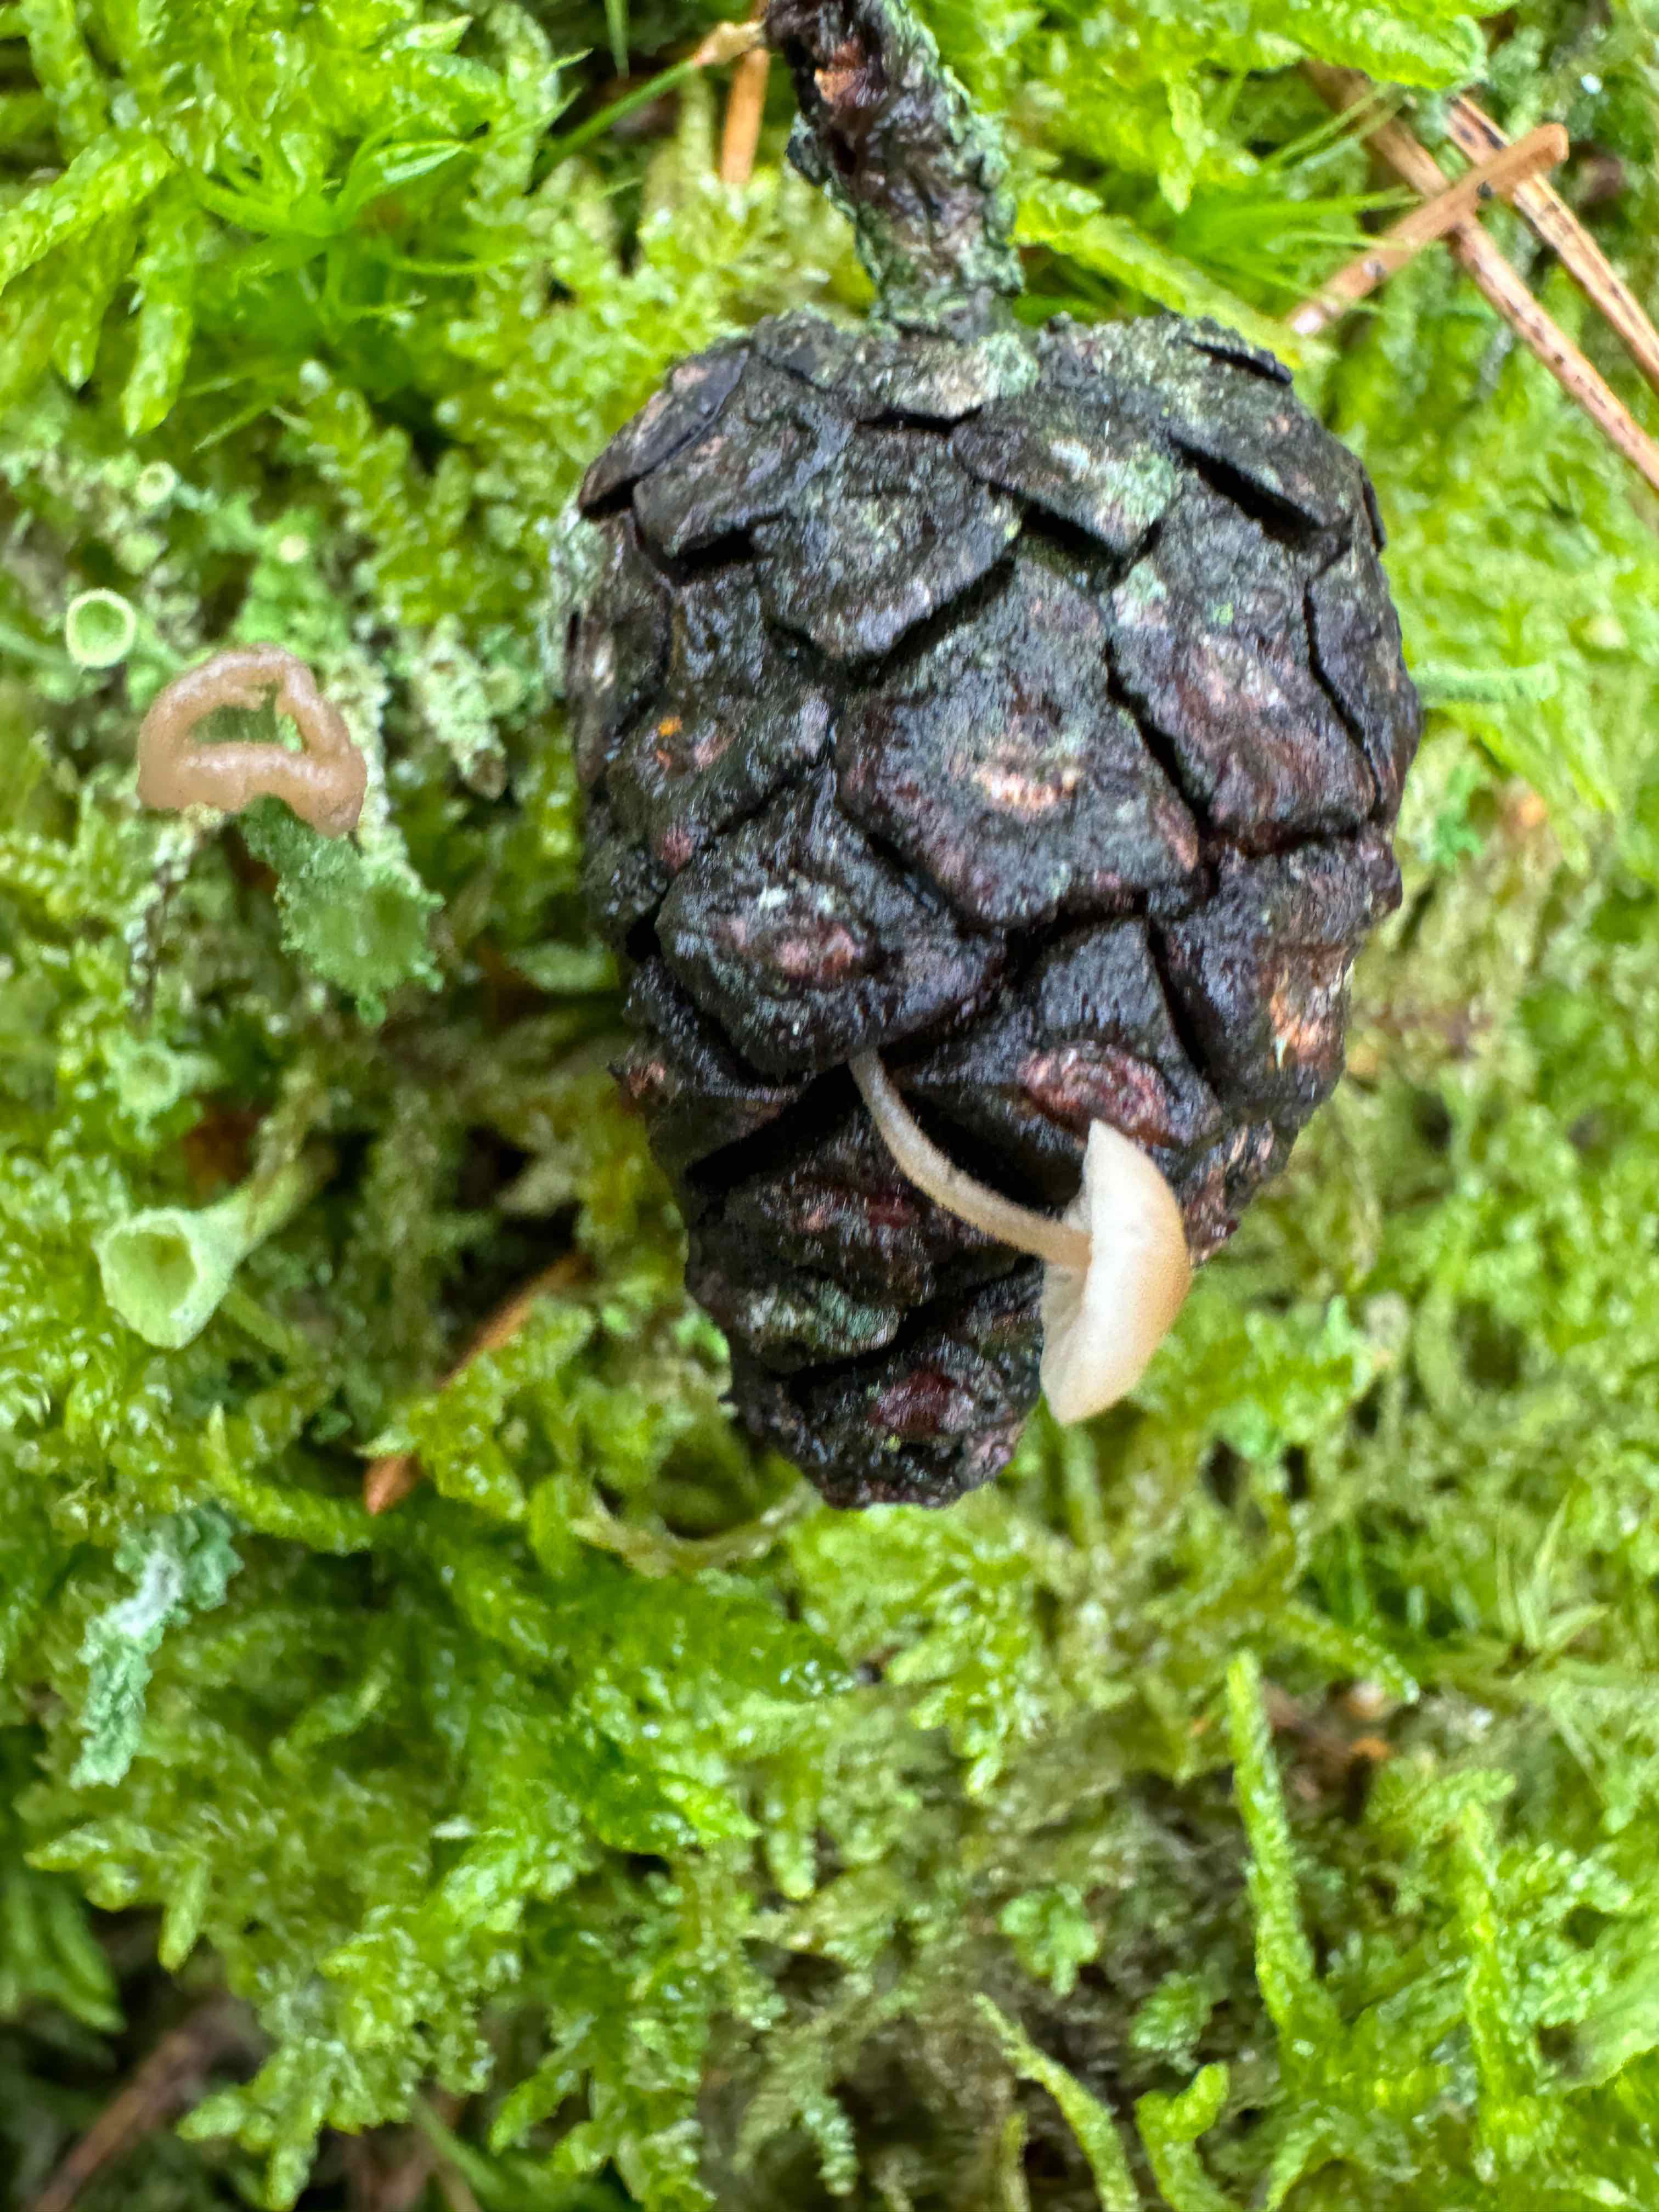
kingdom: Fungi
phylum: Basidiomycota
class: Agaricomycetes
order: Agaricales
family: Marasmiaceae
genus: Baeospora
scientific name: Baeospora myosura
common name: koglebruskhat
